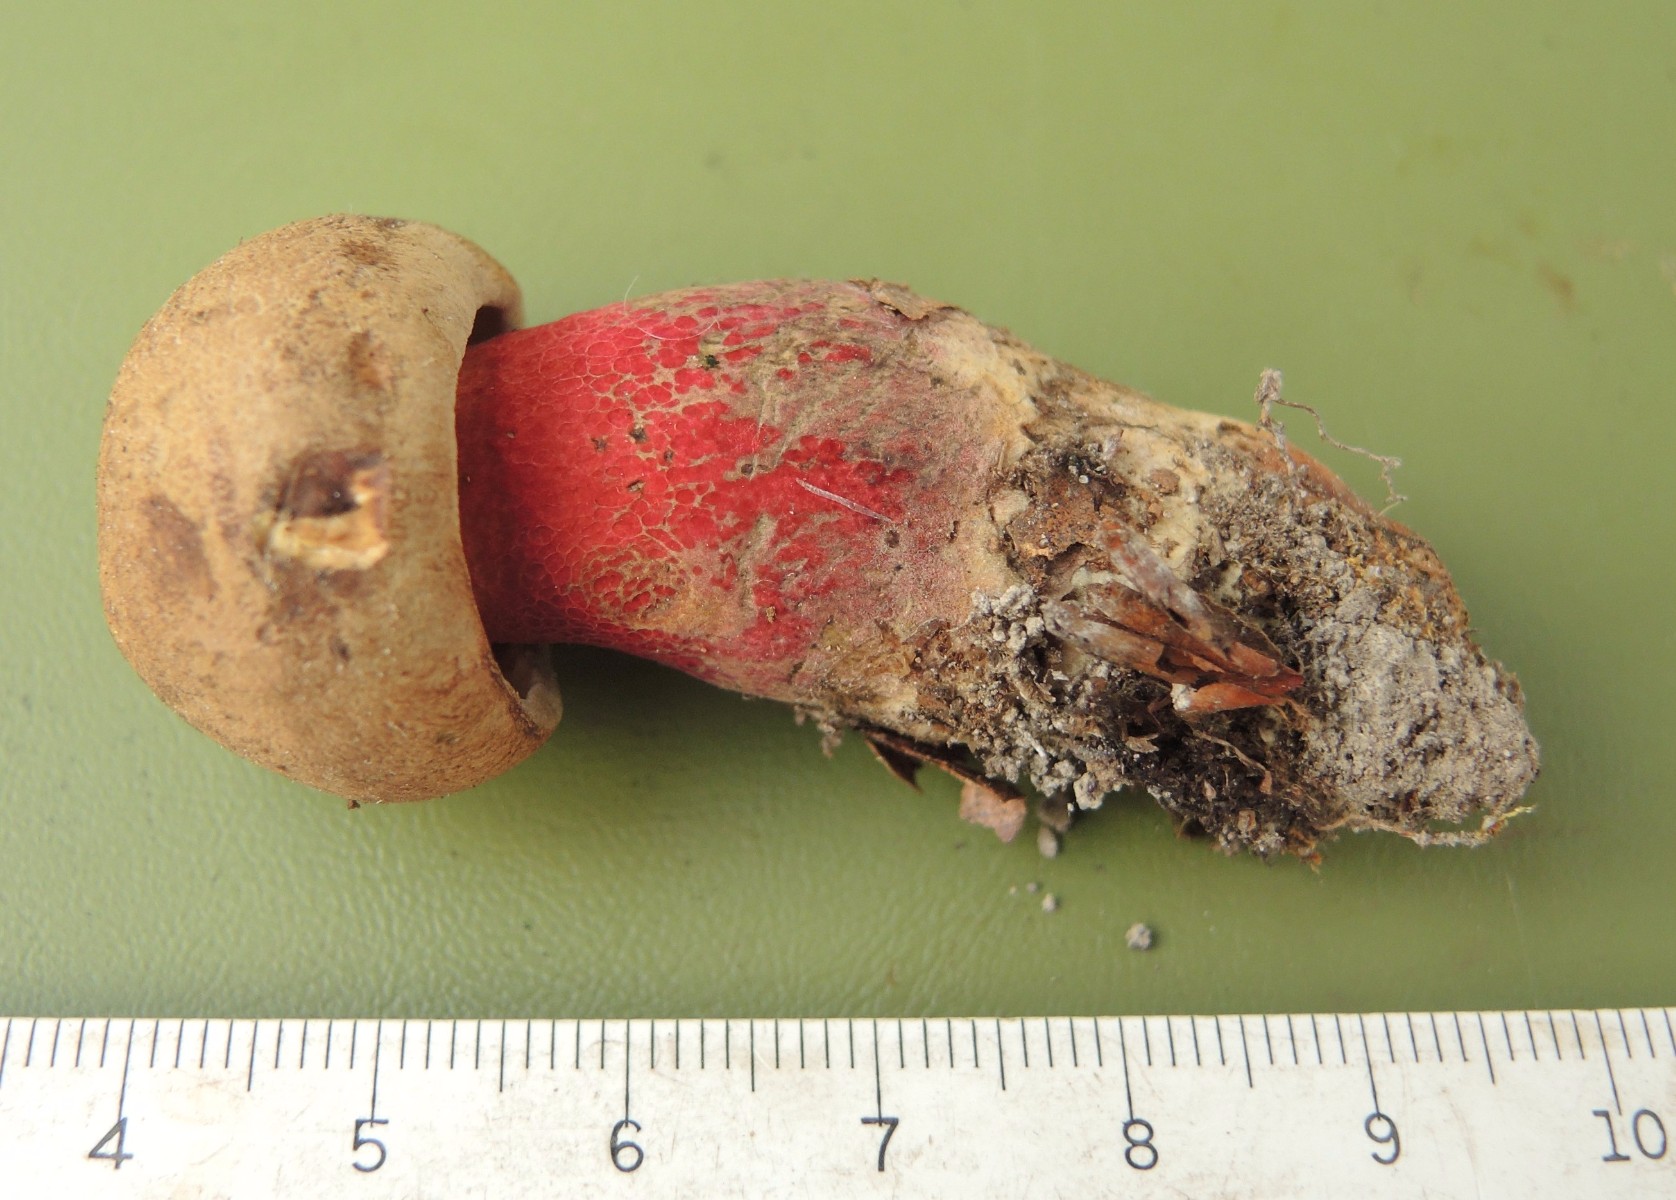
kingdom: Fungi
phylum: Basidiomycota
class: Agaricomycetes
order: Boletales
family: Boletaceae
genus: Caloboletus
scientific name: Caloboletus calopus
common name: skønfodet rørhat
